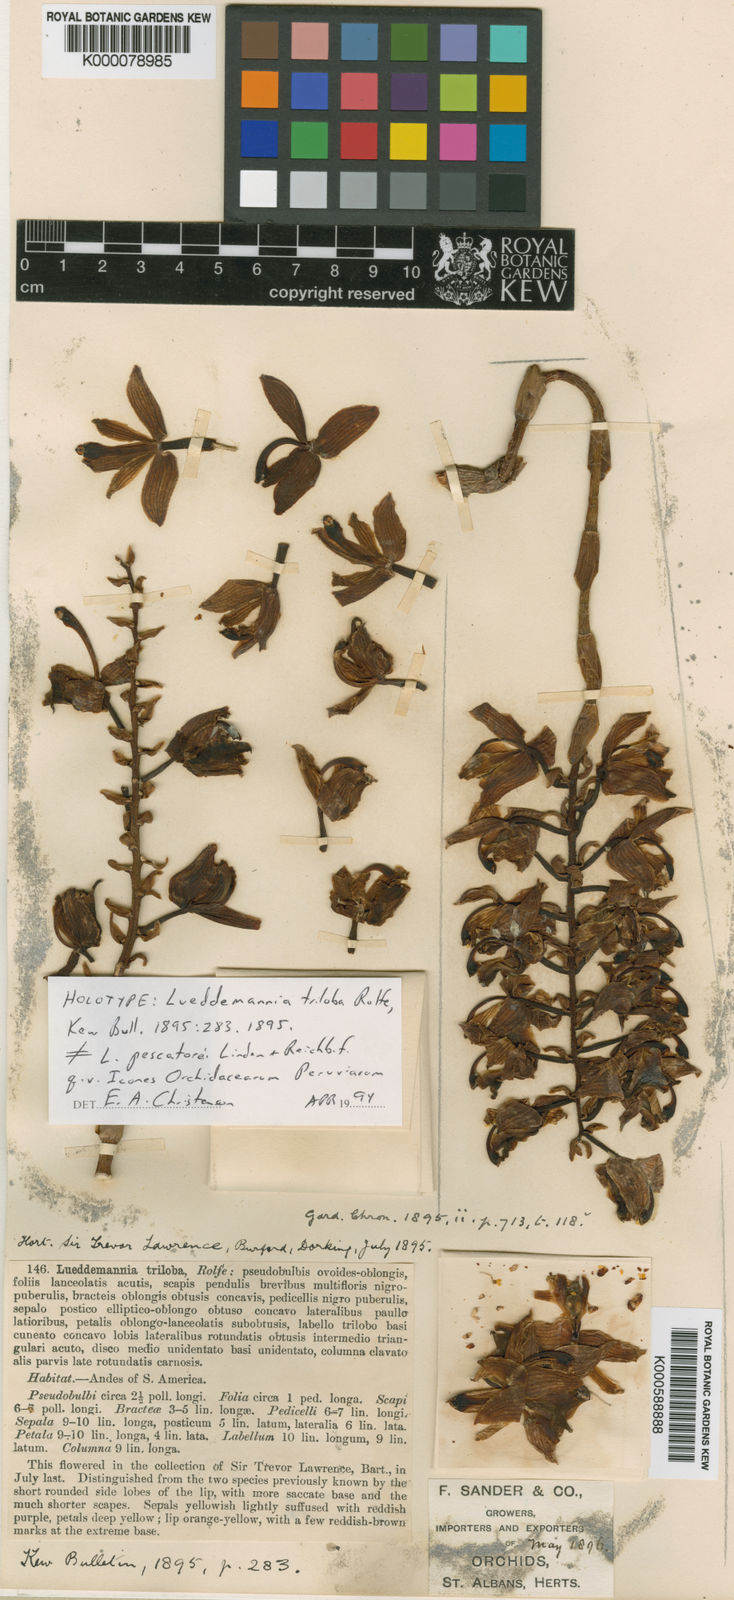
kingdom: Plantae
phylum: Tracheophyta
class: Liliopsida
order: Asparagales
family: Orchidaceae
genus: Lueddemannia
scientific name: Lueddemannia pescatorei
